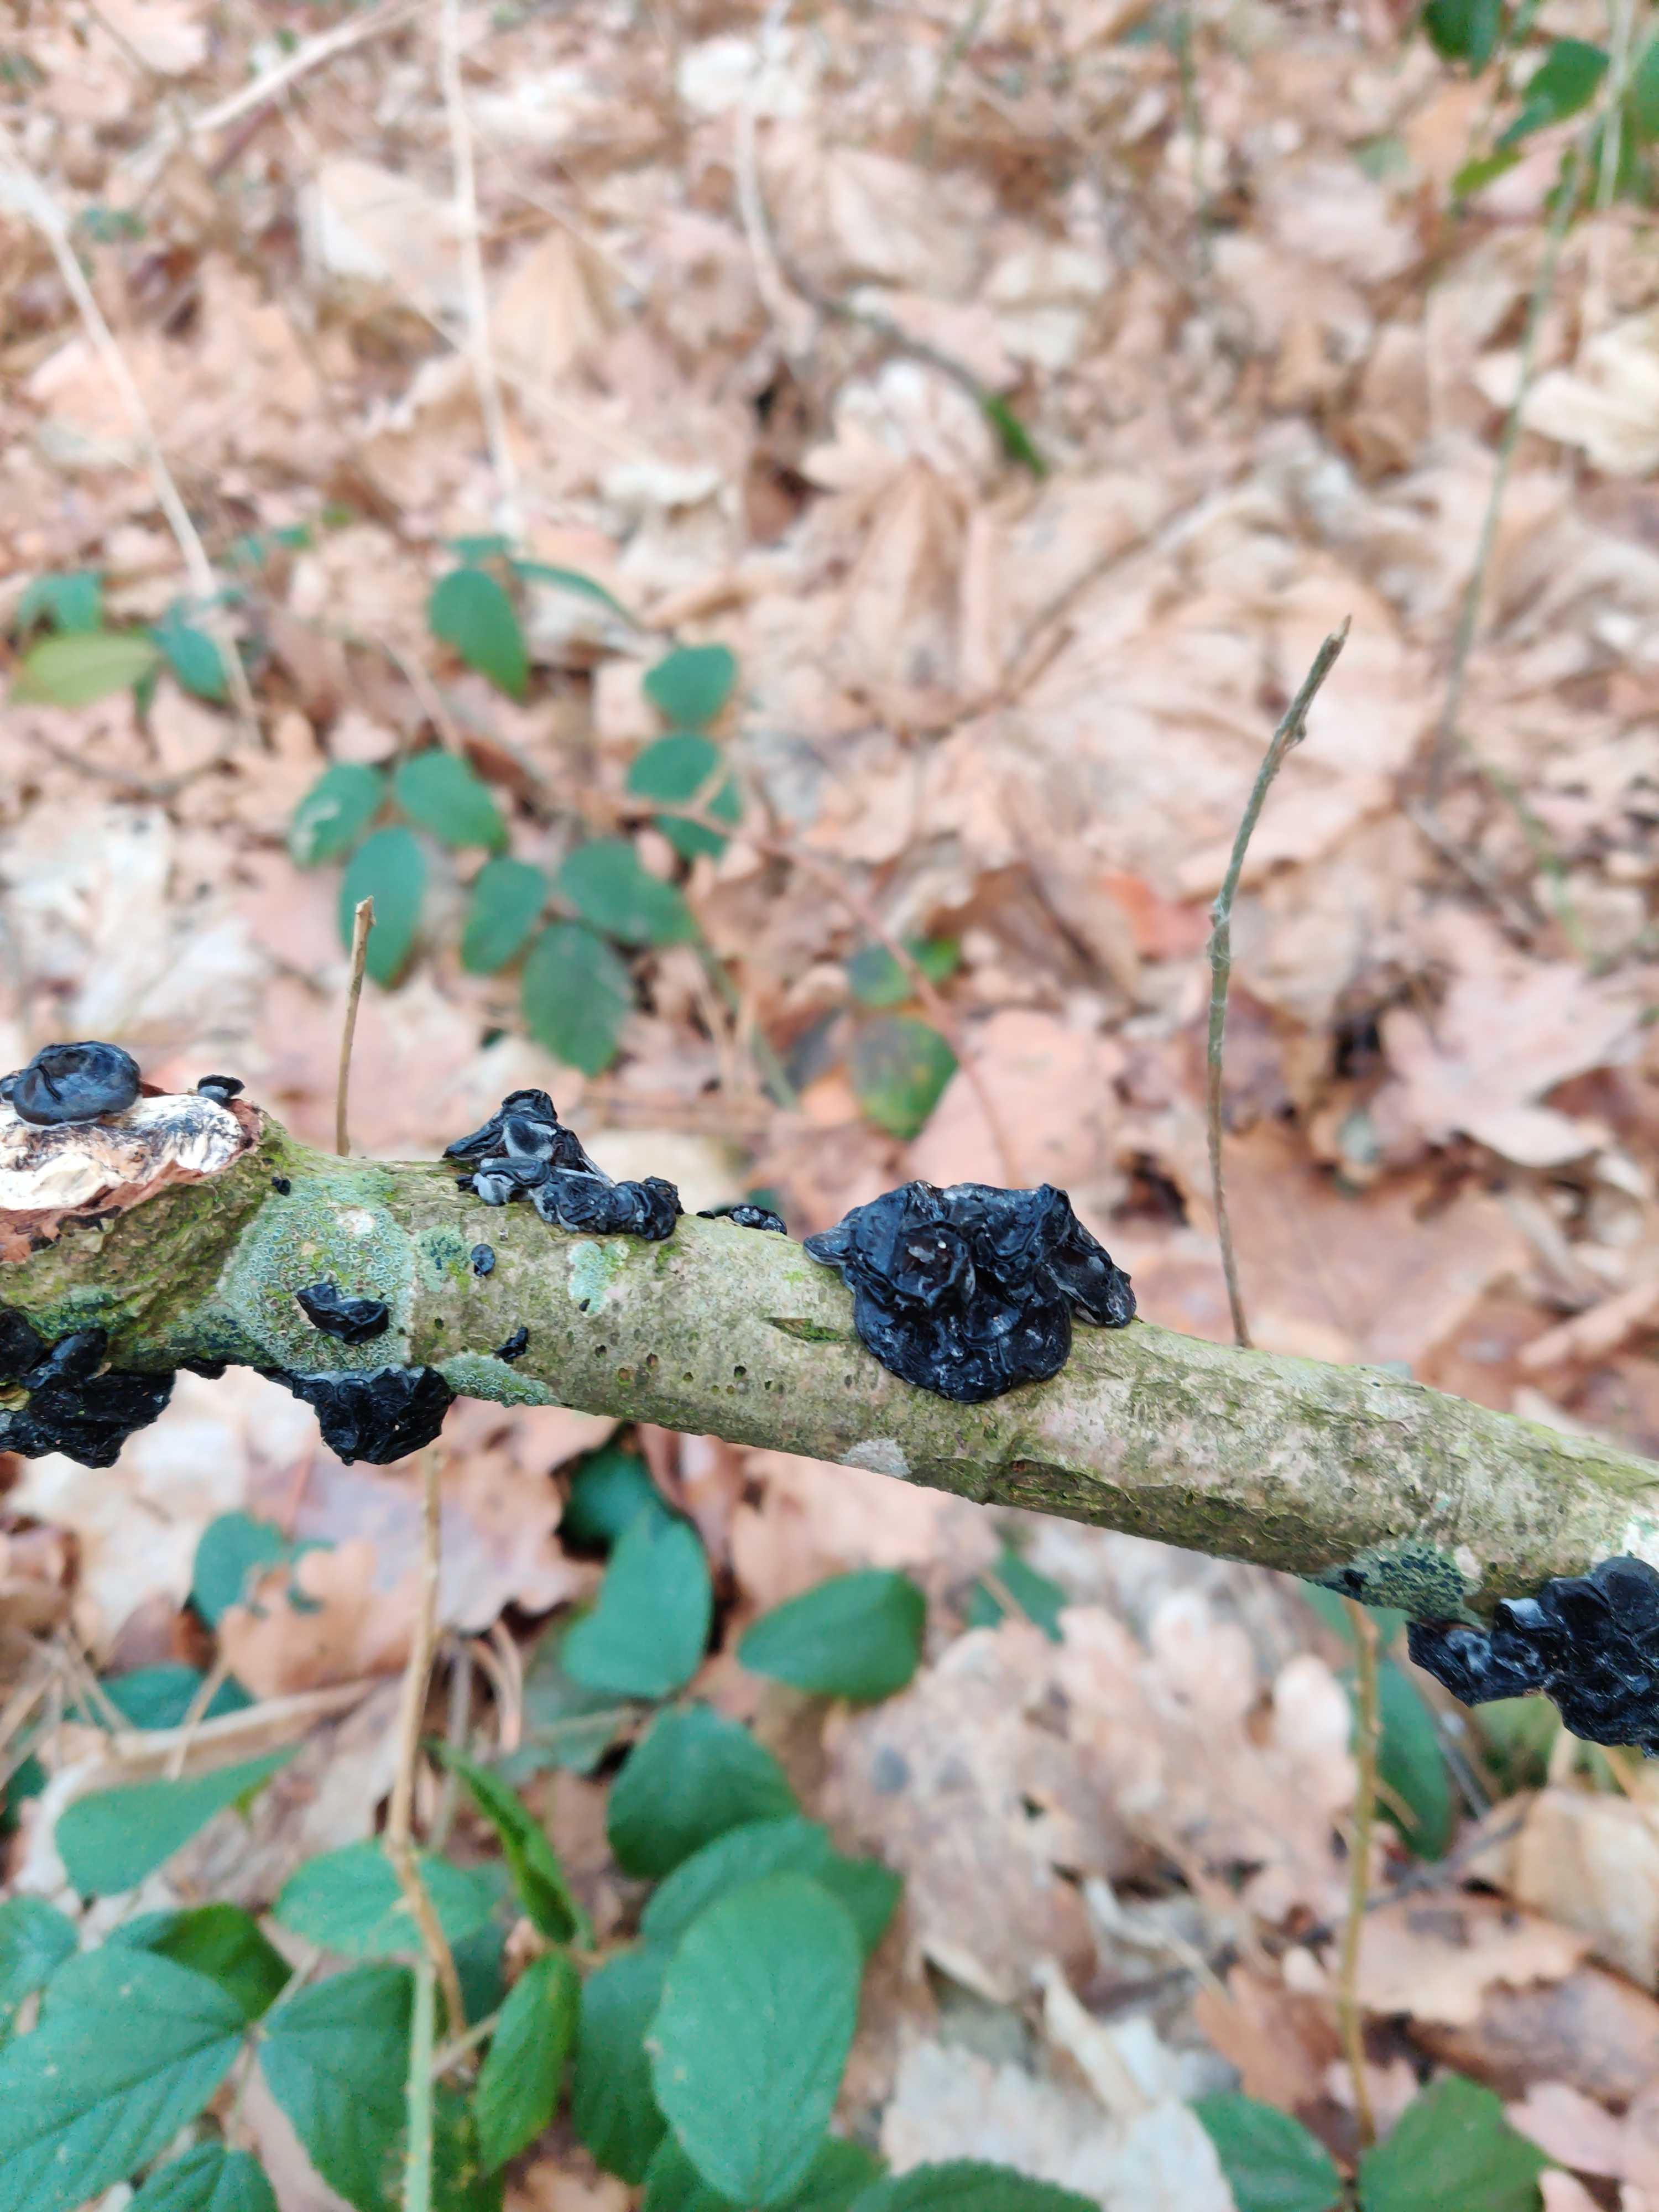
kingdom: Fungi
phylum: Basidiomycota
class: Agaricomycetes
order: Auriculariales
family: Auriculariaceae
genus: Exidia
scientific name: Exidia nigricans
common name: almindelig bævretop
